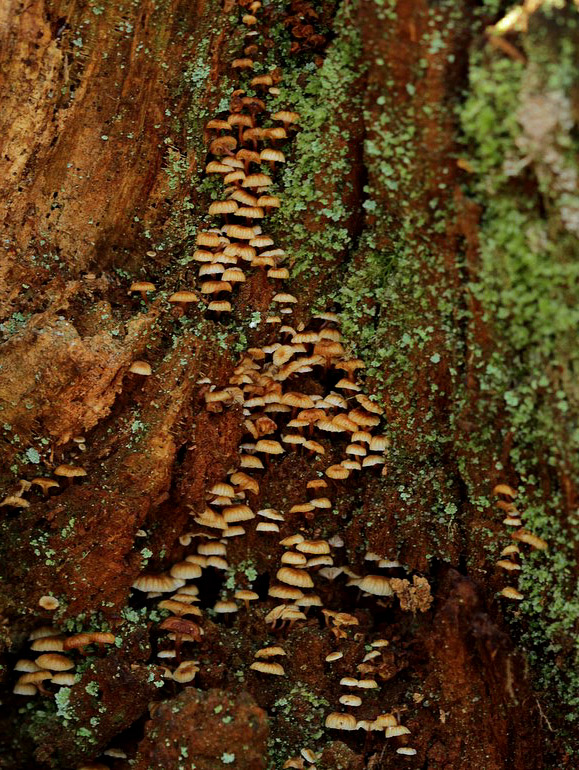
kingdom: Fungi
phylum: Basidiomycota
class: Agaricomycetes
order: Agaricales
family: Mycenaceae
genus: Xeromphalina
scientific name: Xeromphalina campanella
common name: klokke-tørhat
